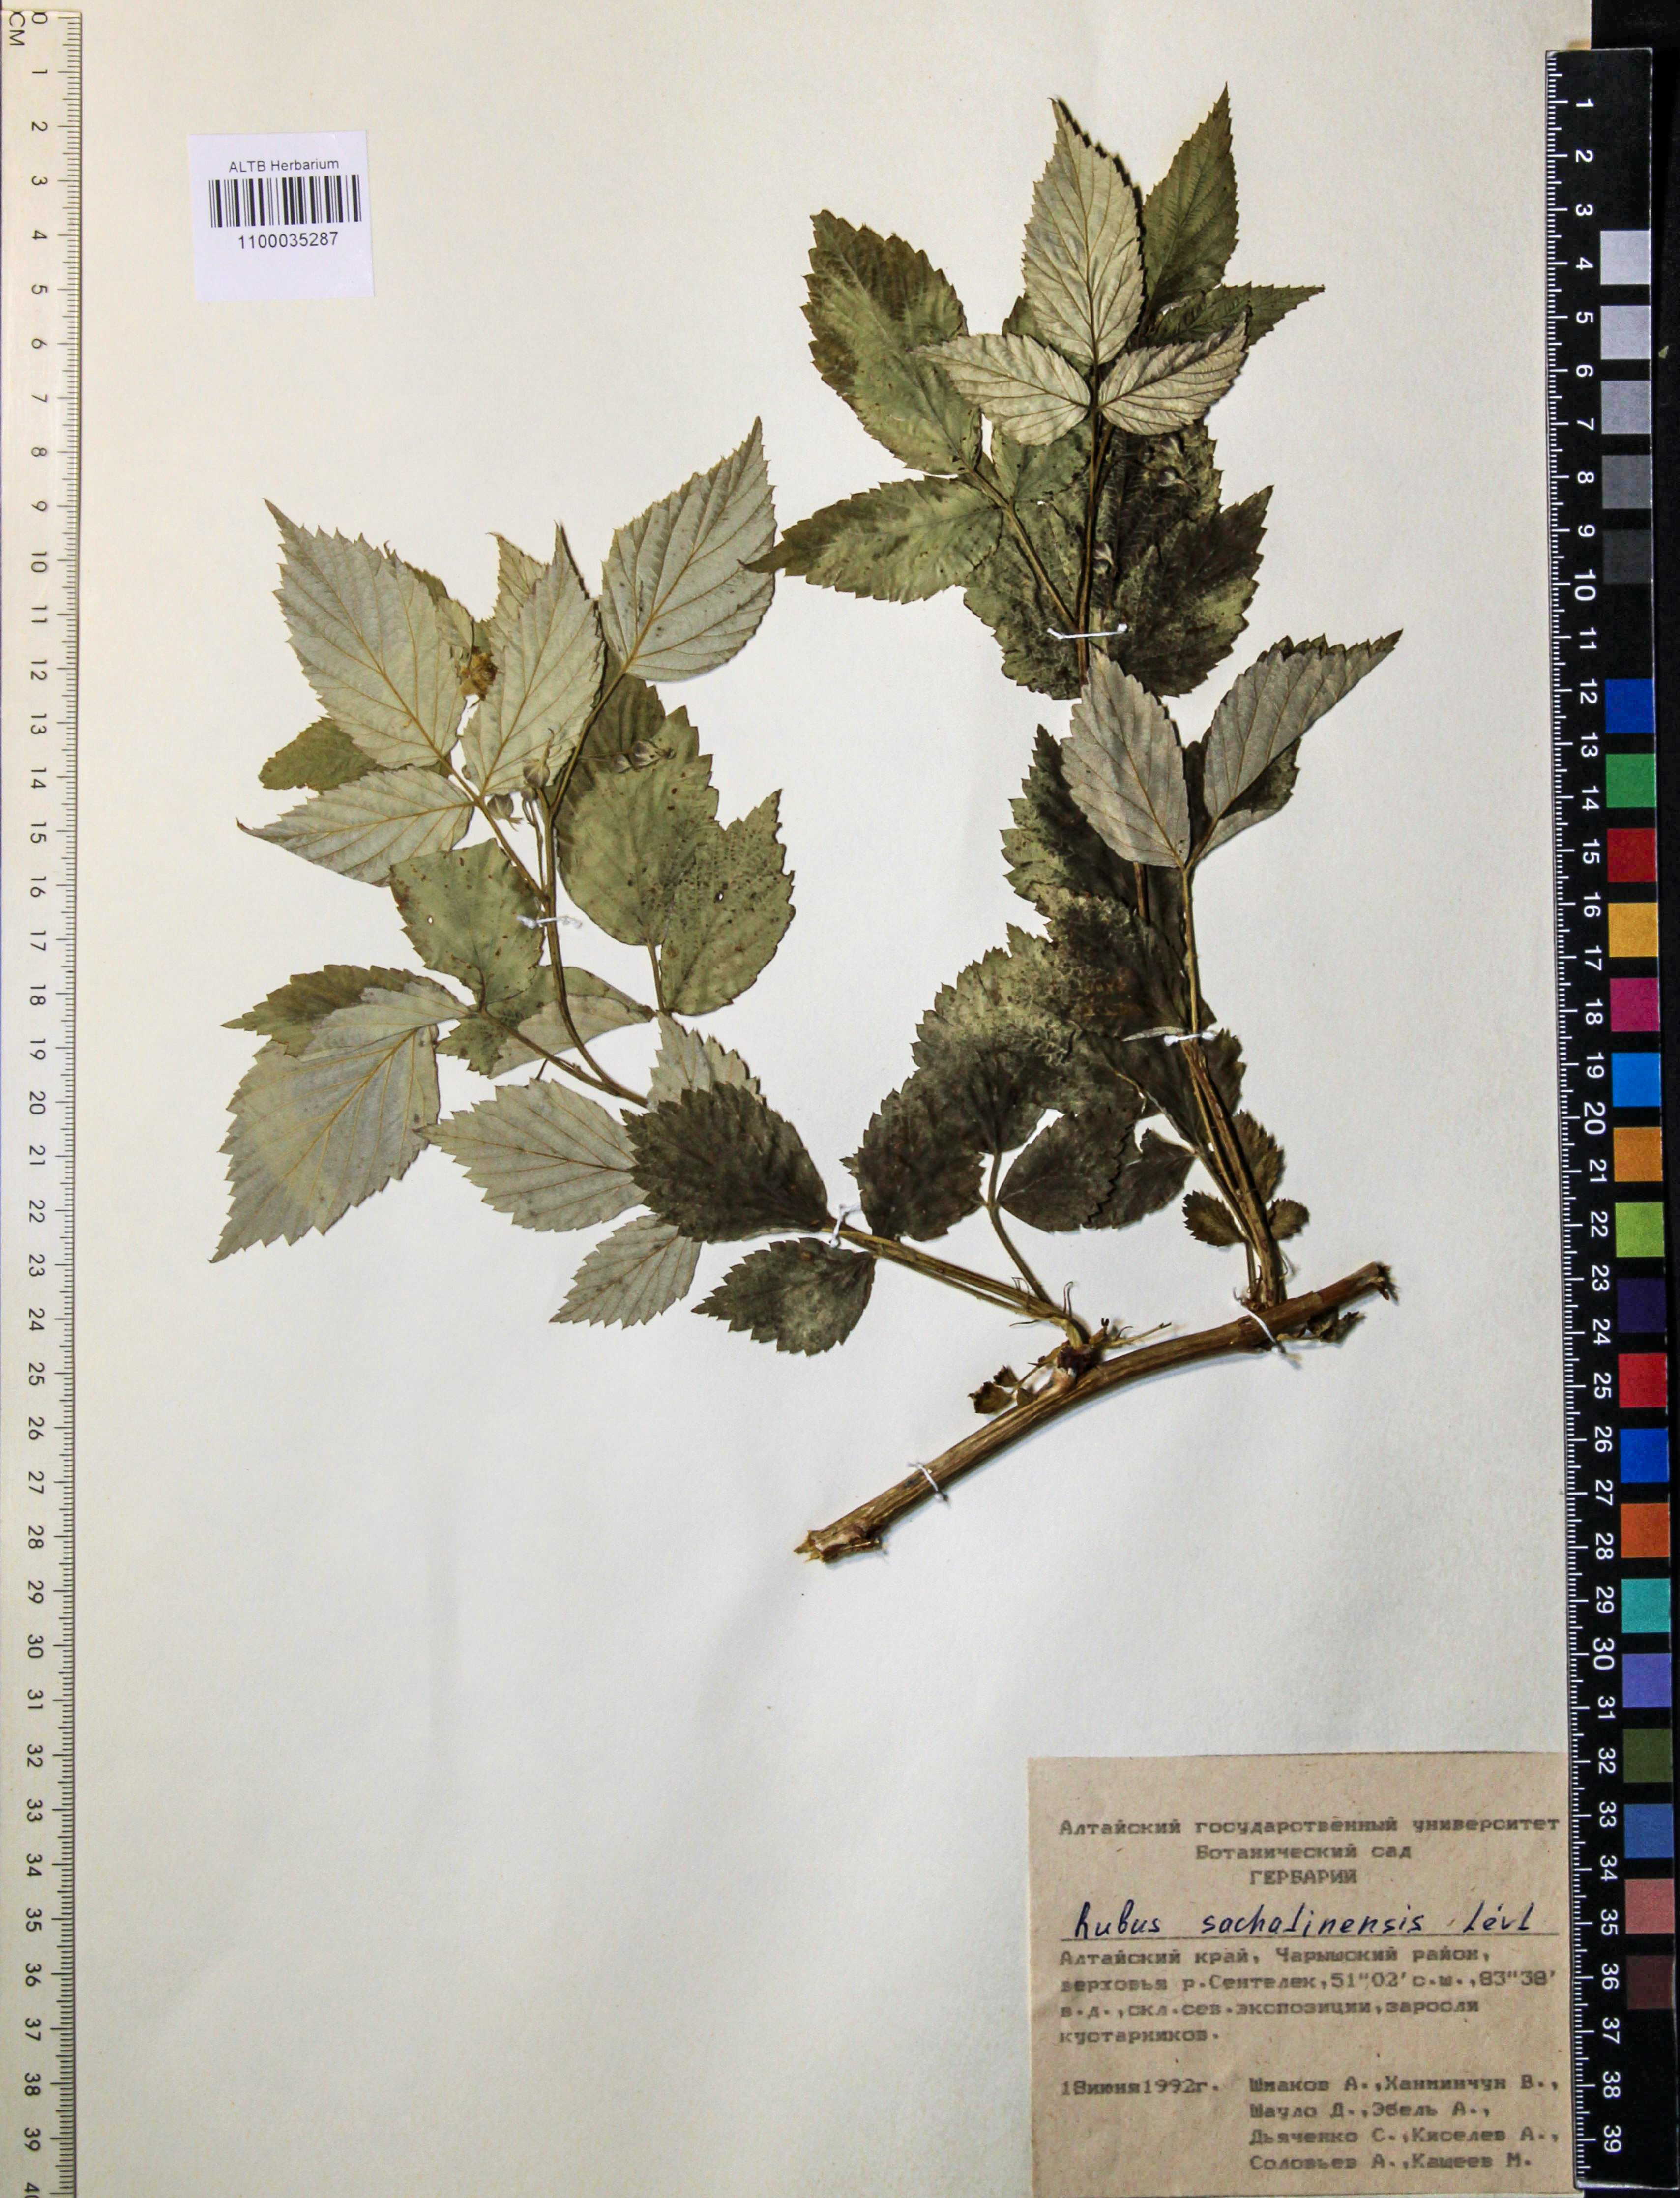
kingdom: Plantae
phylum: Tracheophyta
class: Magnoliopsida
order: Rosales
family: Rosaceae
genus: Rubus
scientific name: Rubus sachalinensis
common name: Red raspberry
